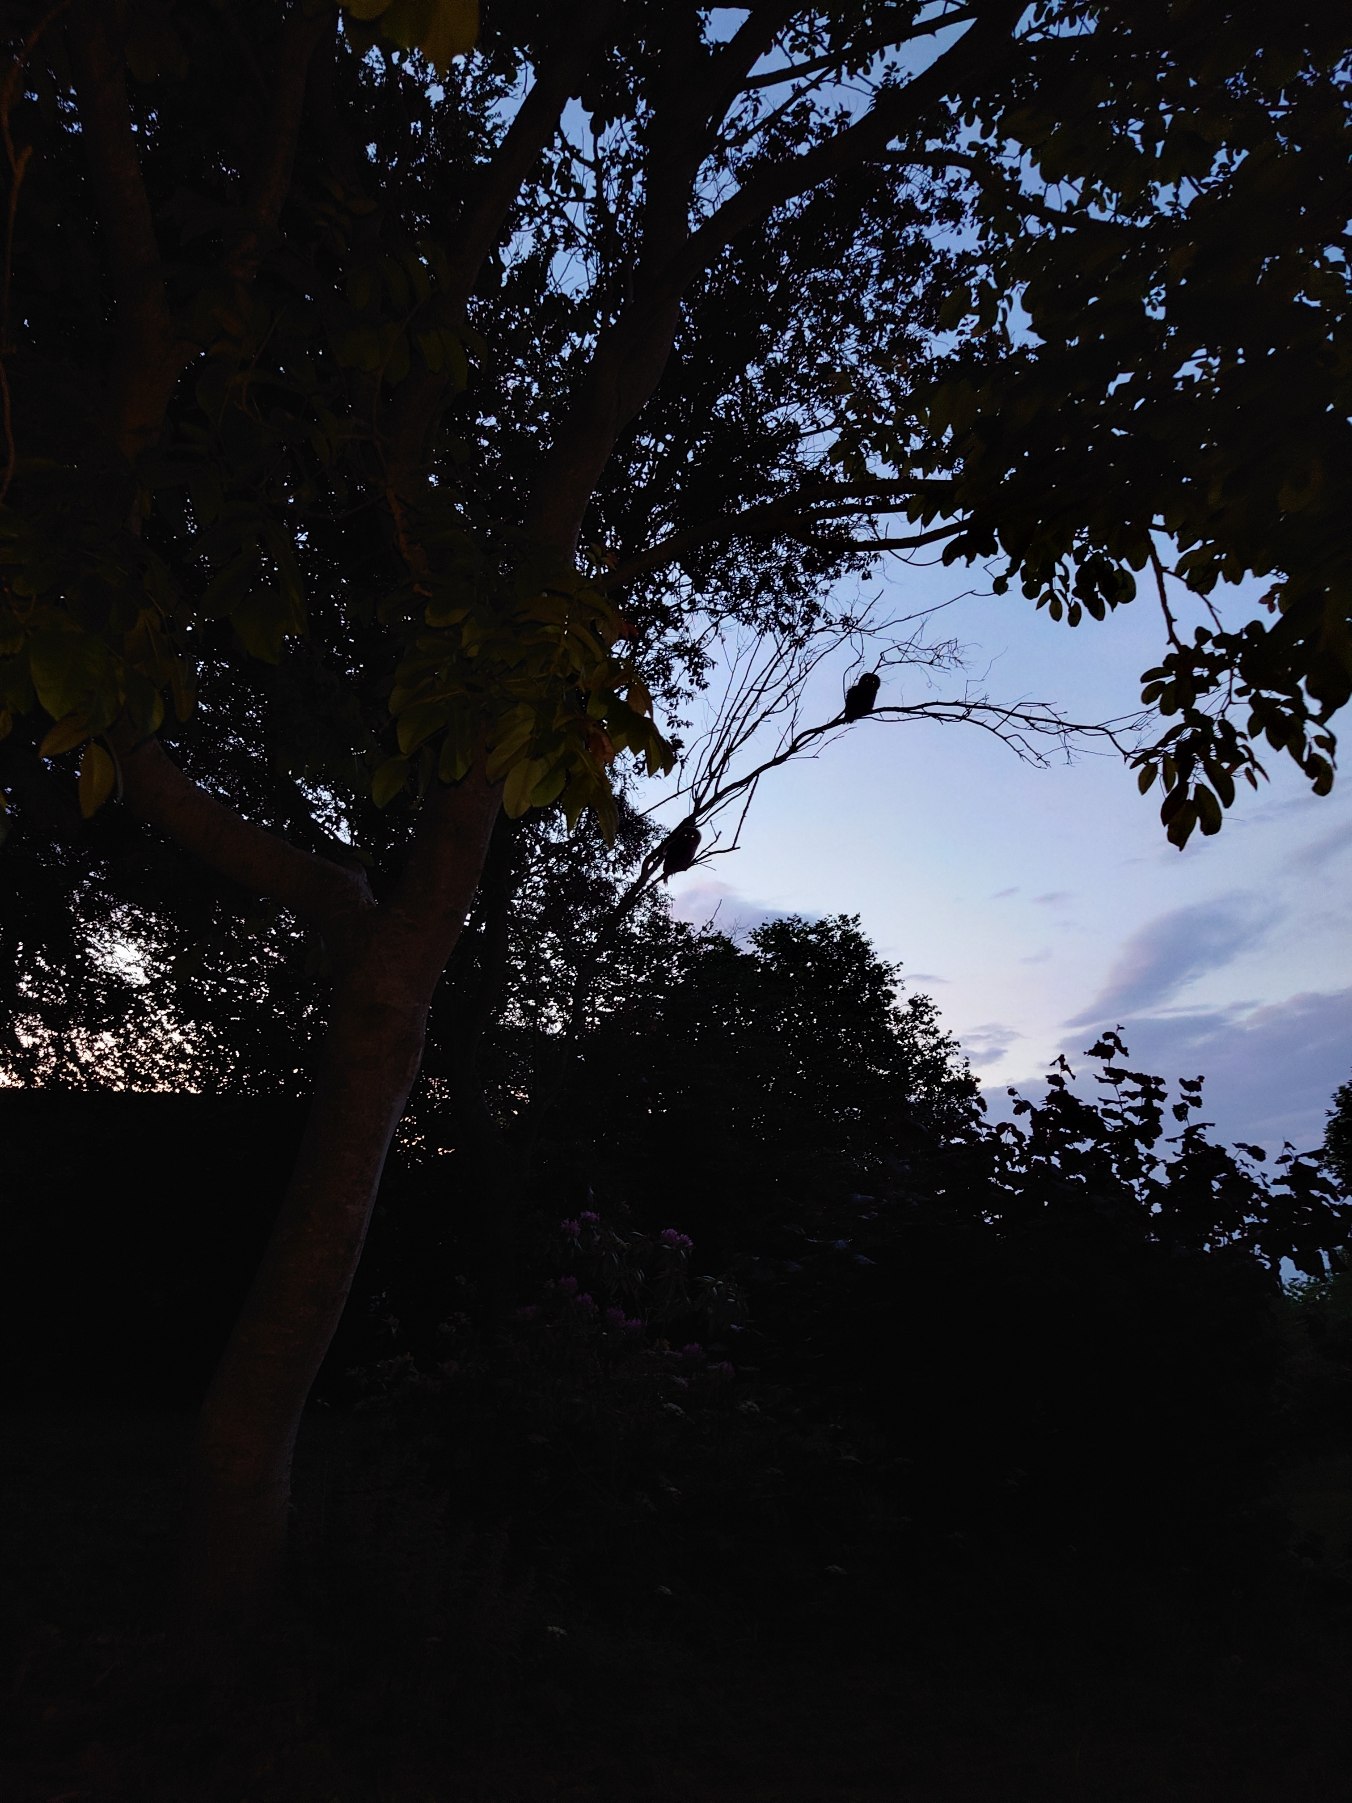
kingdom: Animalia
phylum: Chordata
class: Aves
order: Strigiformes
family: Strigidae
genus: Strix
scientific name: Strix aluco
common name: Natugle
